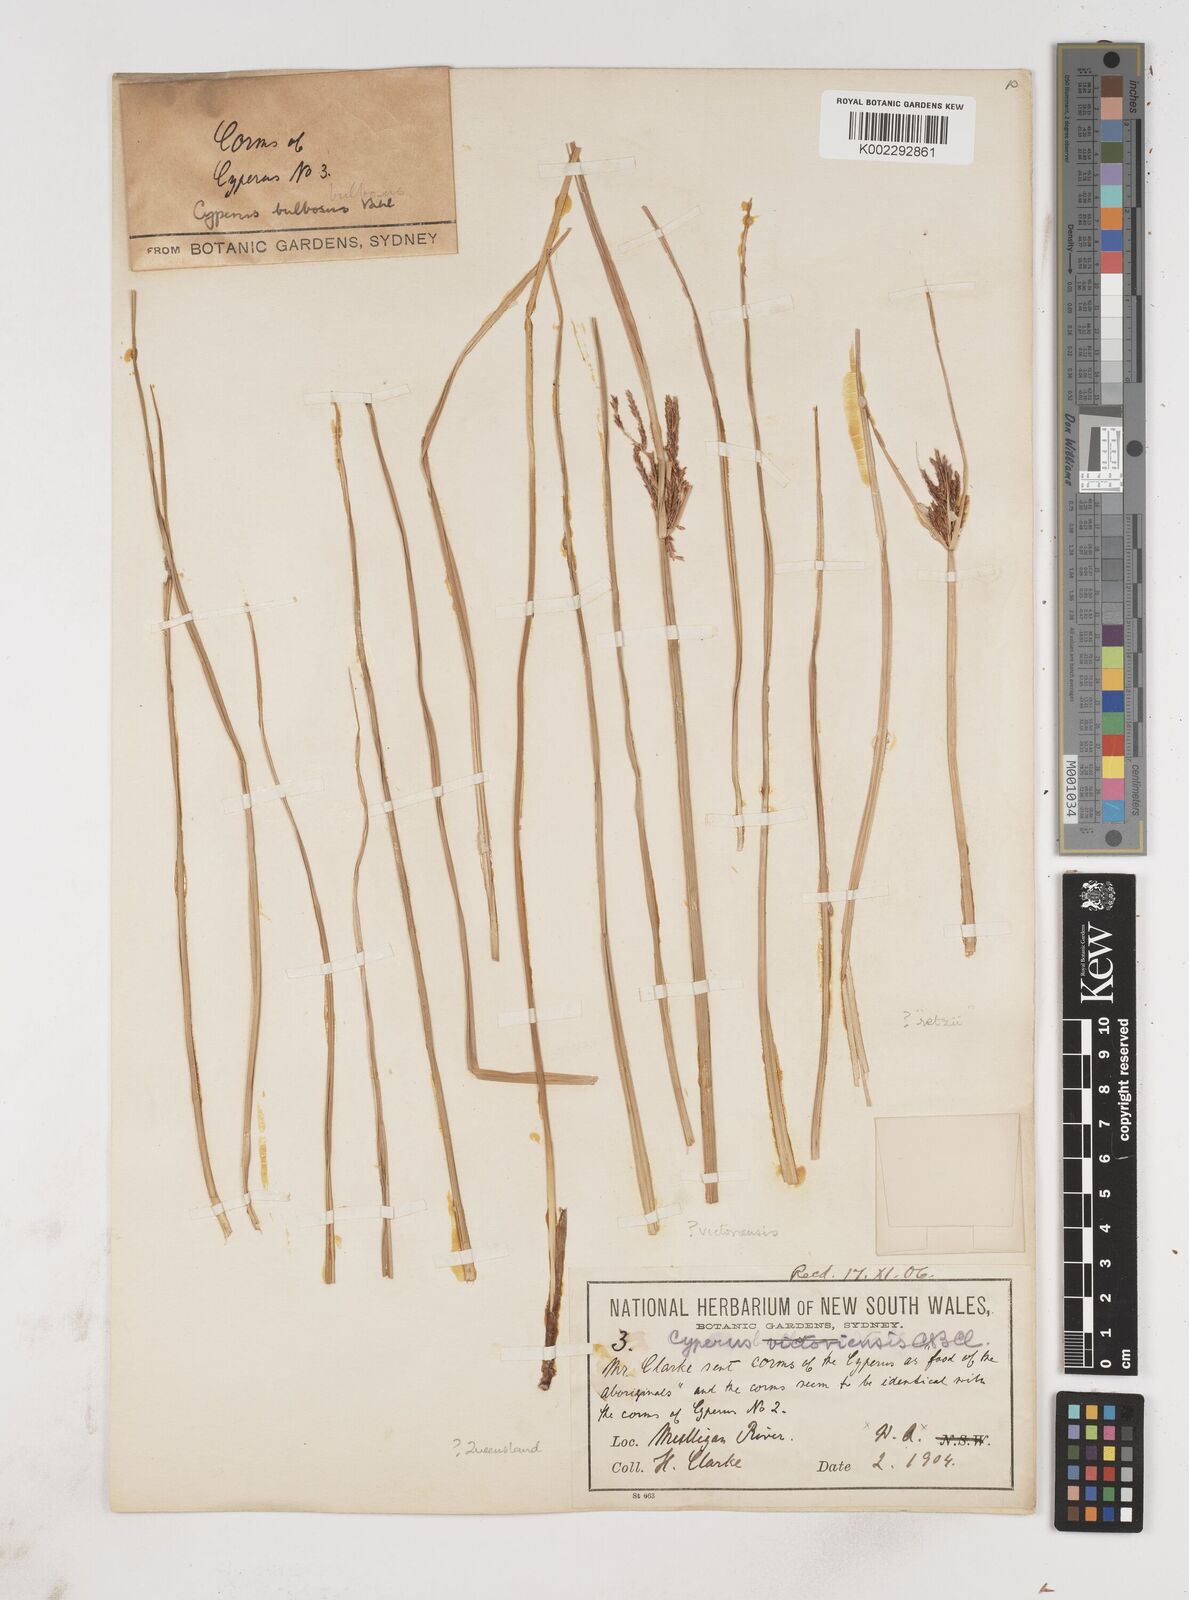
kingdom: Plantae
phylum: Tracheophyta
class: Liliopsida
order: Poales
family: Cyperaceae
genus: Cyperus
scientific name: Cyperus victoriensis
